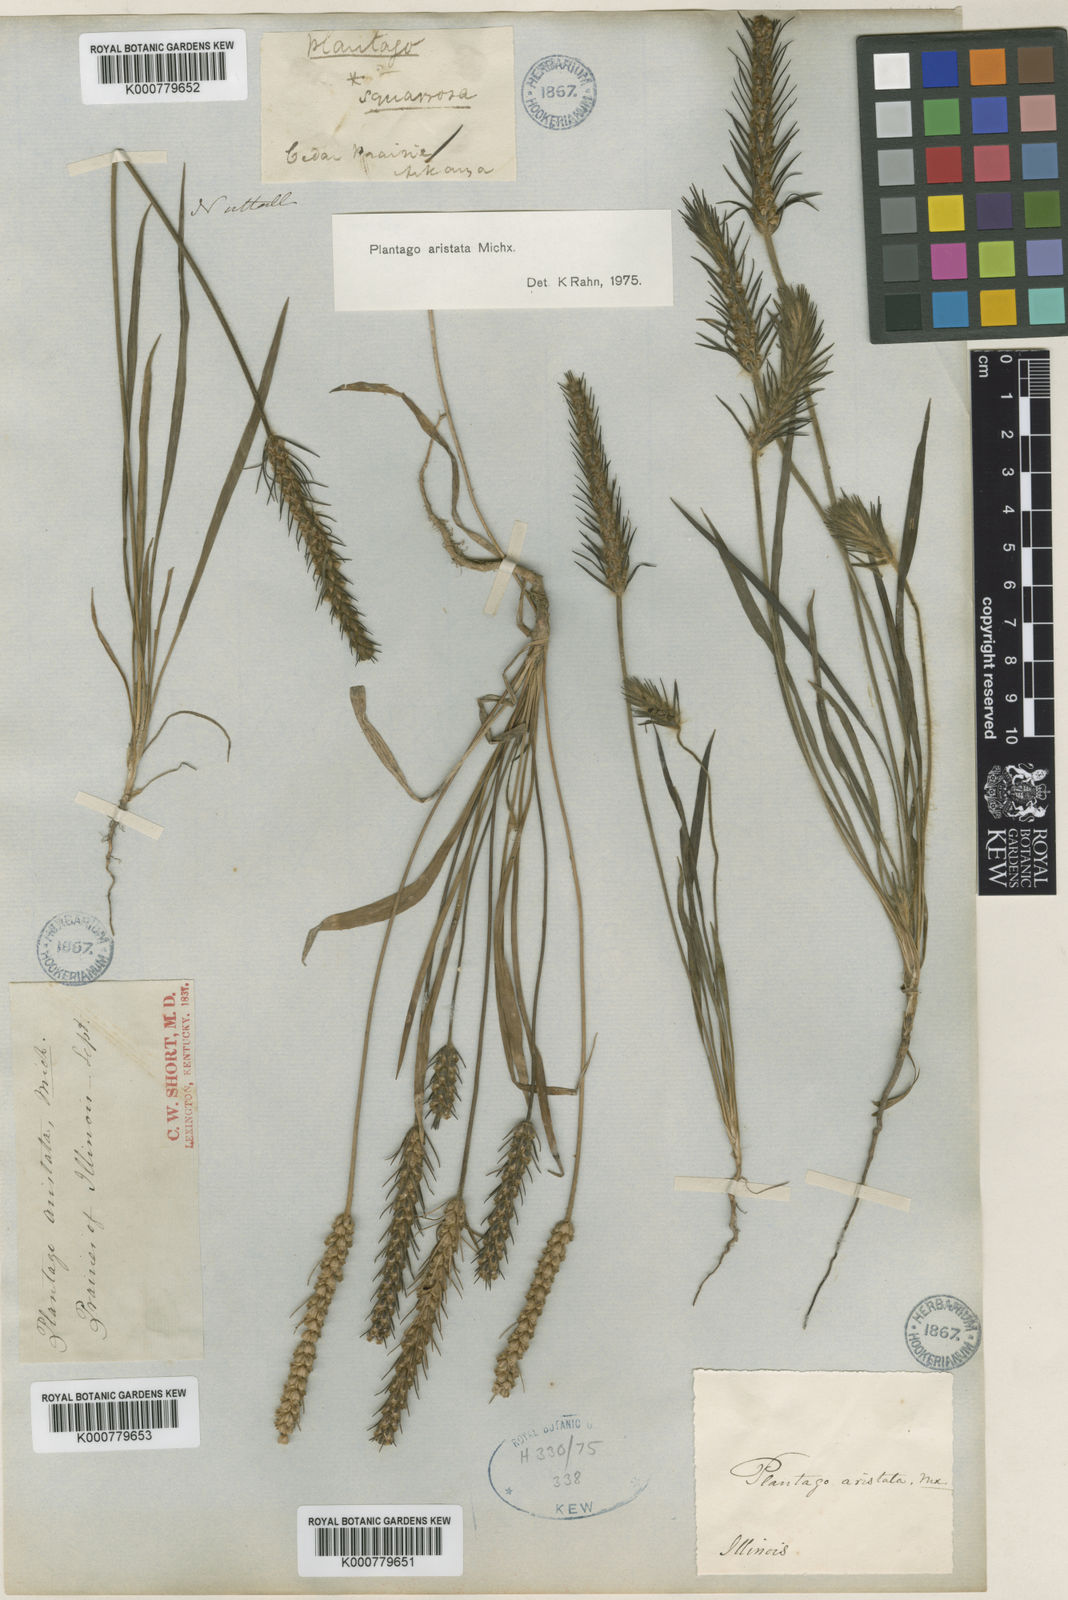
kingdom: Plantae
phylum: Tracheophyta
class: Magnoliopsida
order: Lamiales
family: Plantaginaceae
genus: Plantago
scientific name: Plantago aristata
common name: Bracted plantain
